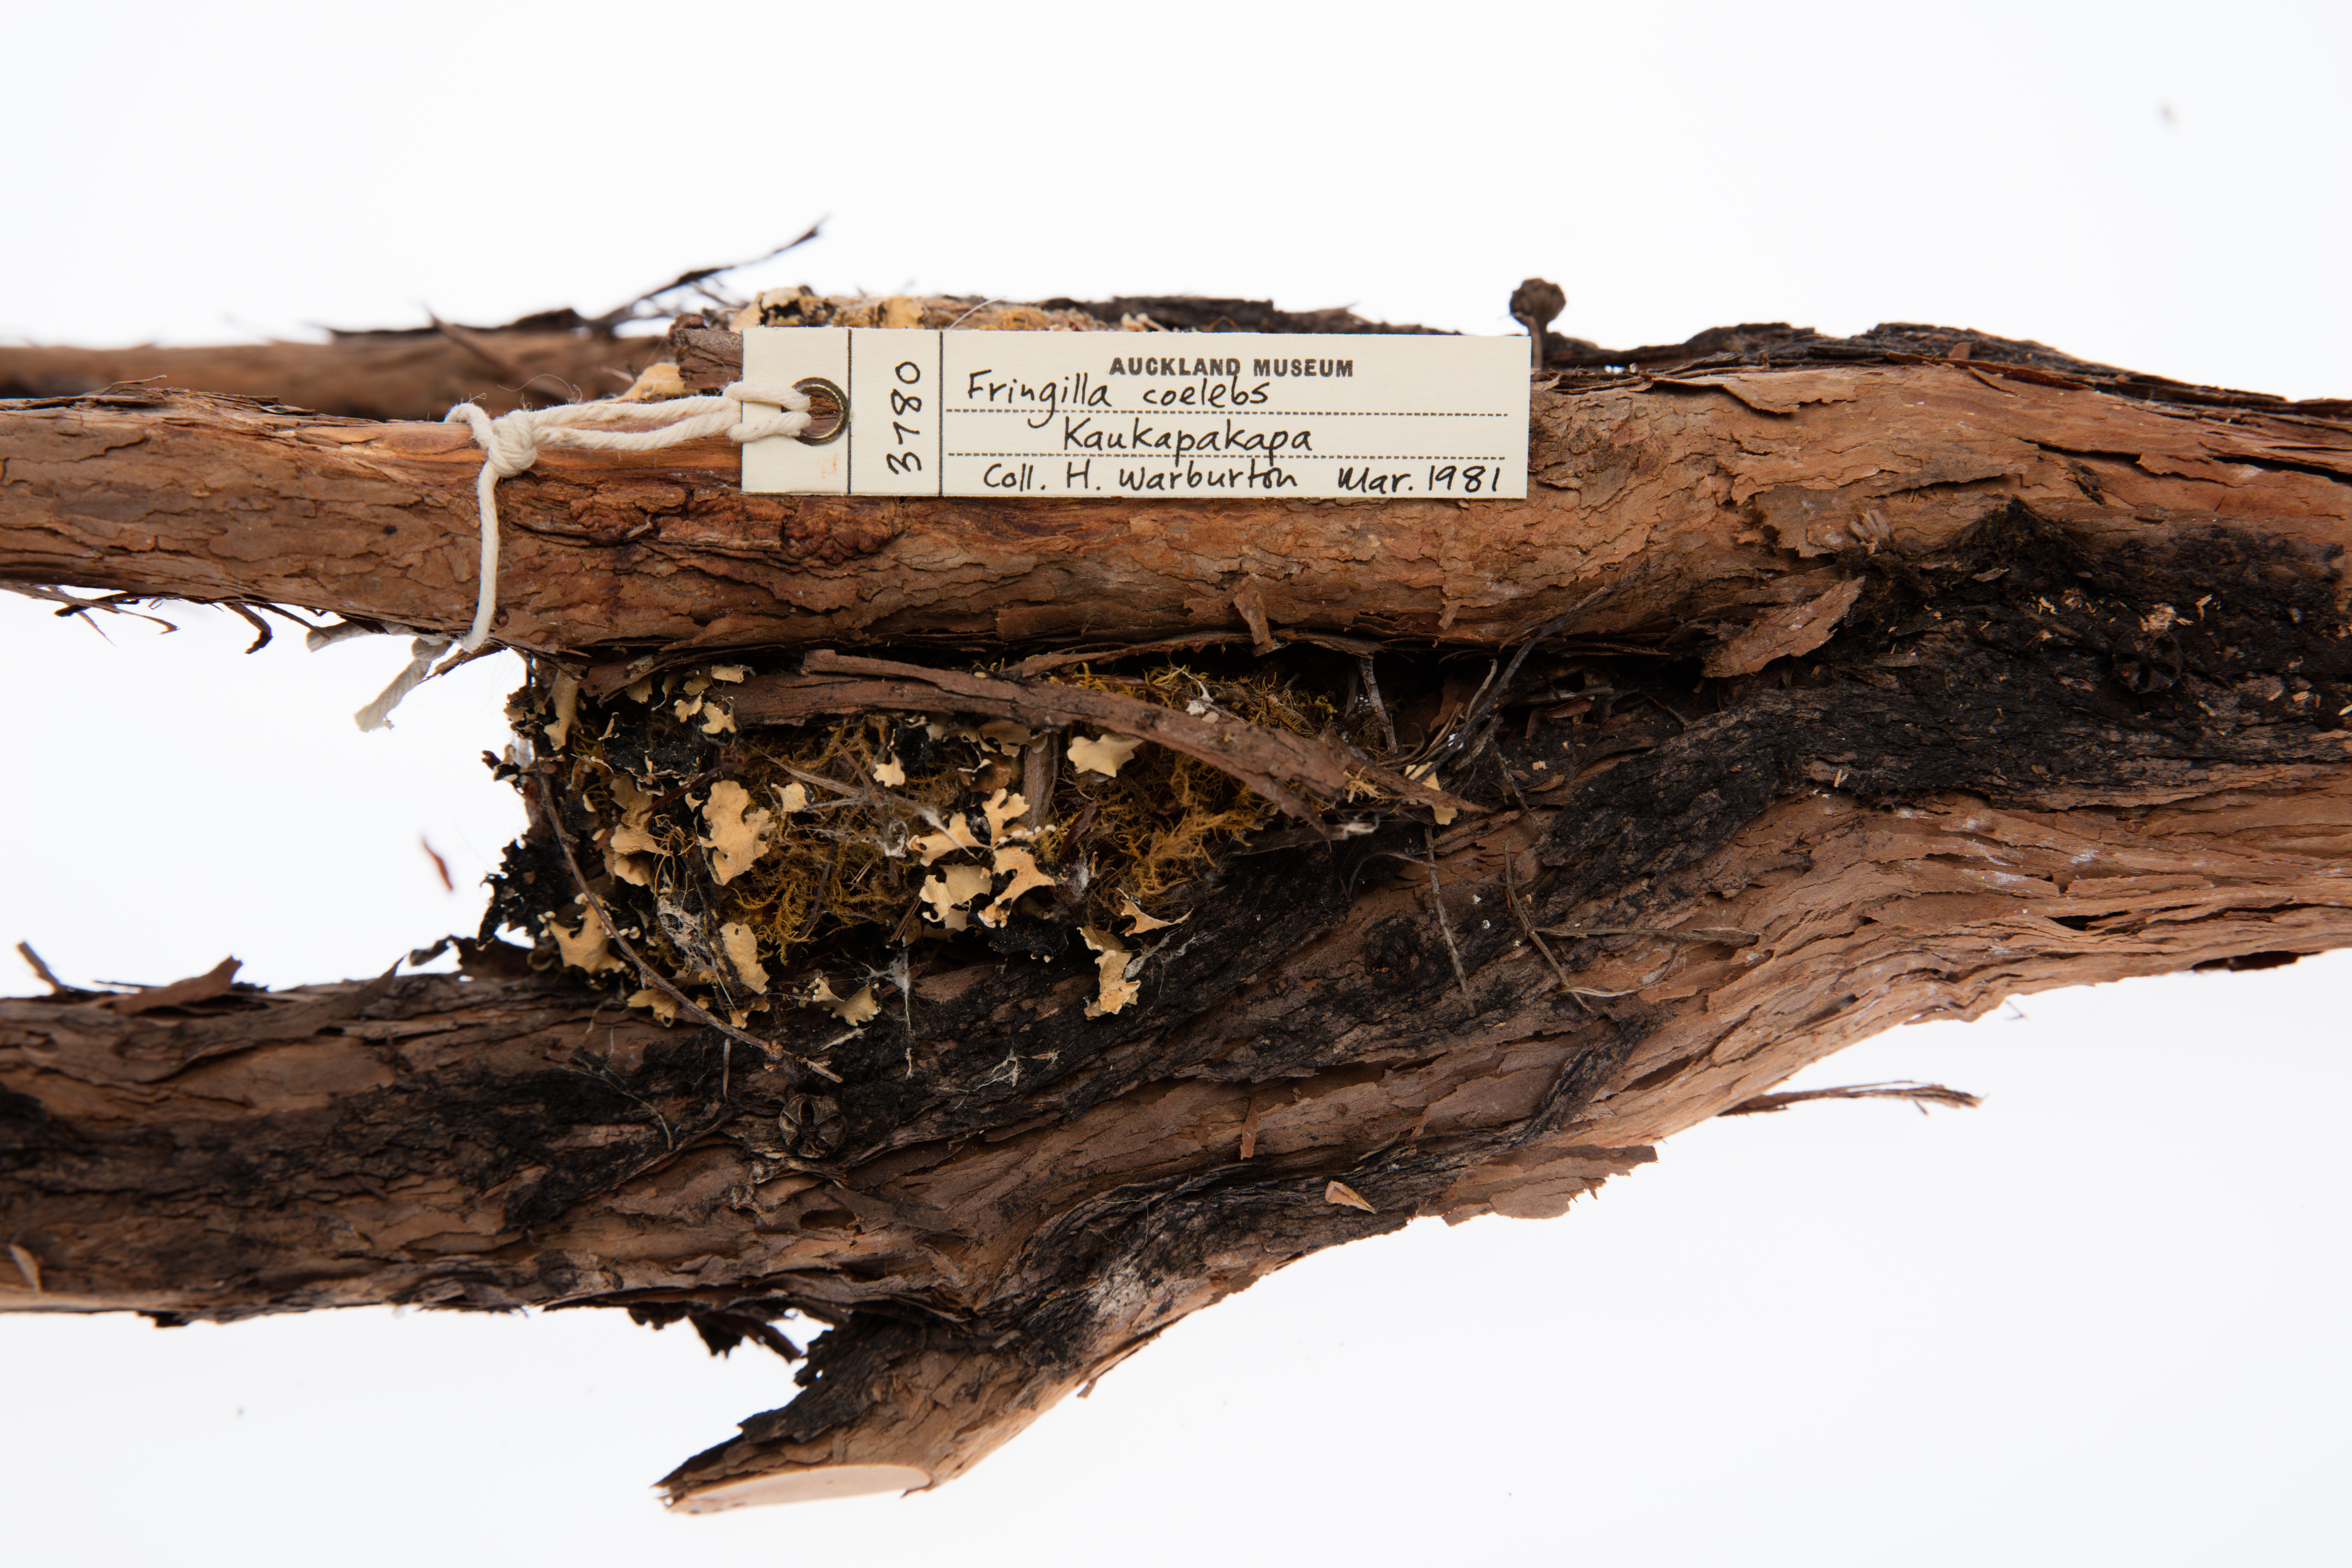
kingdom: Animalia
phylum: Chordata
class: Aves
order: Passeriformes
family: Fringillidae
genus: Fringilla
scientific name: Fringilla coelebs
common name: Common chaffinch
